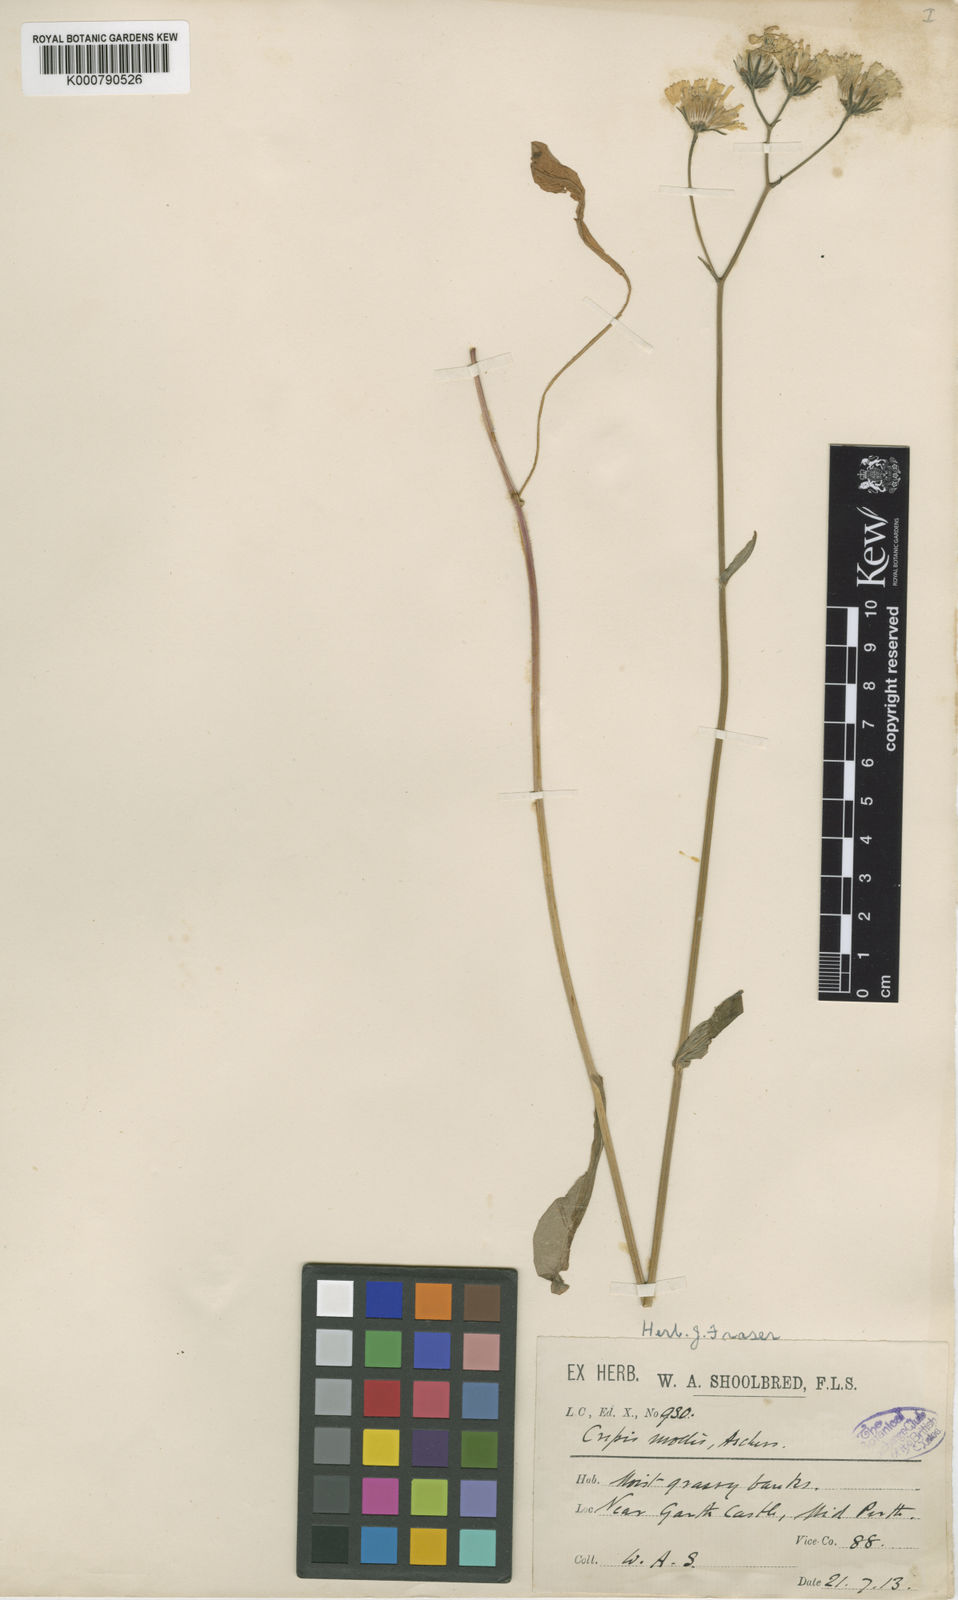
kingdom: Plantae
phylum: Tracheophyta
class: Magnoliopsida
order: Asterales
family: Asteraceae
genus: Crepis
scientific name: Crepis mollis
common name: Northern hawk's-beard
